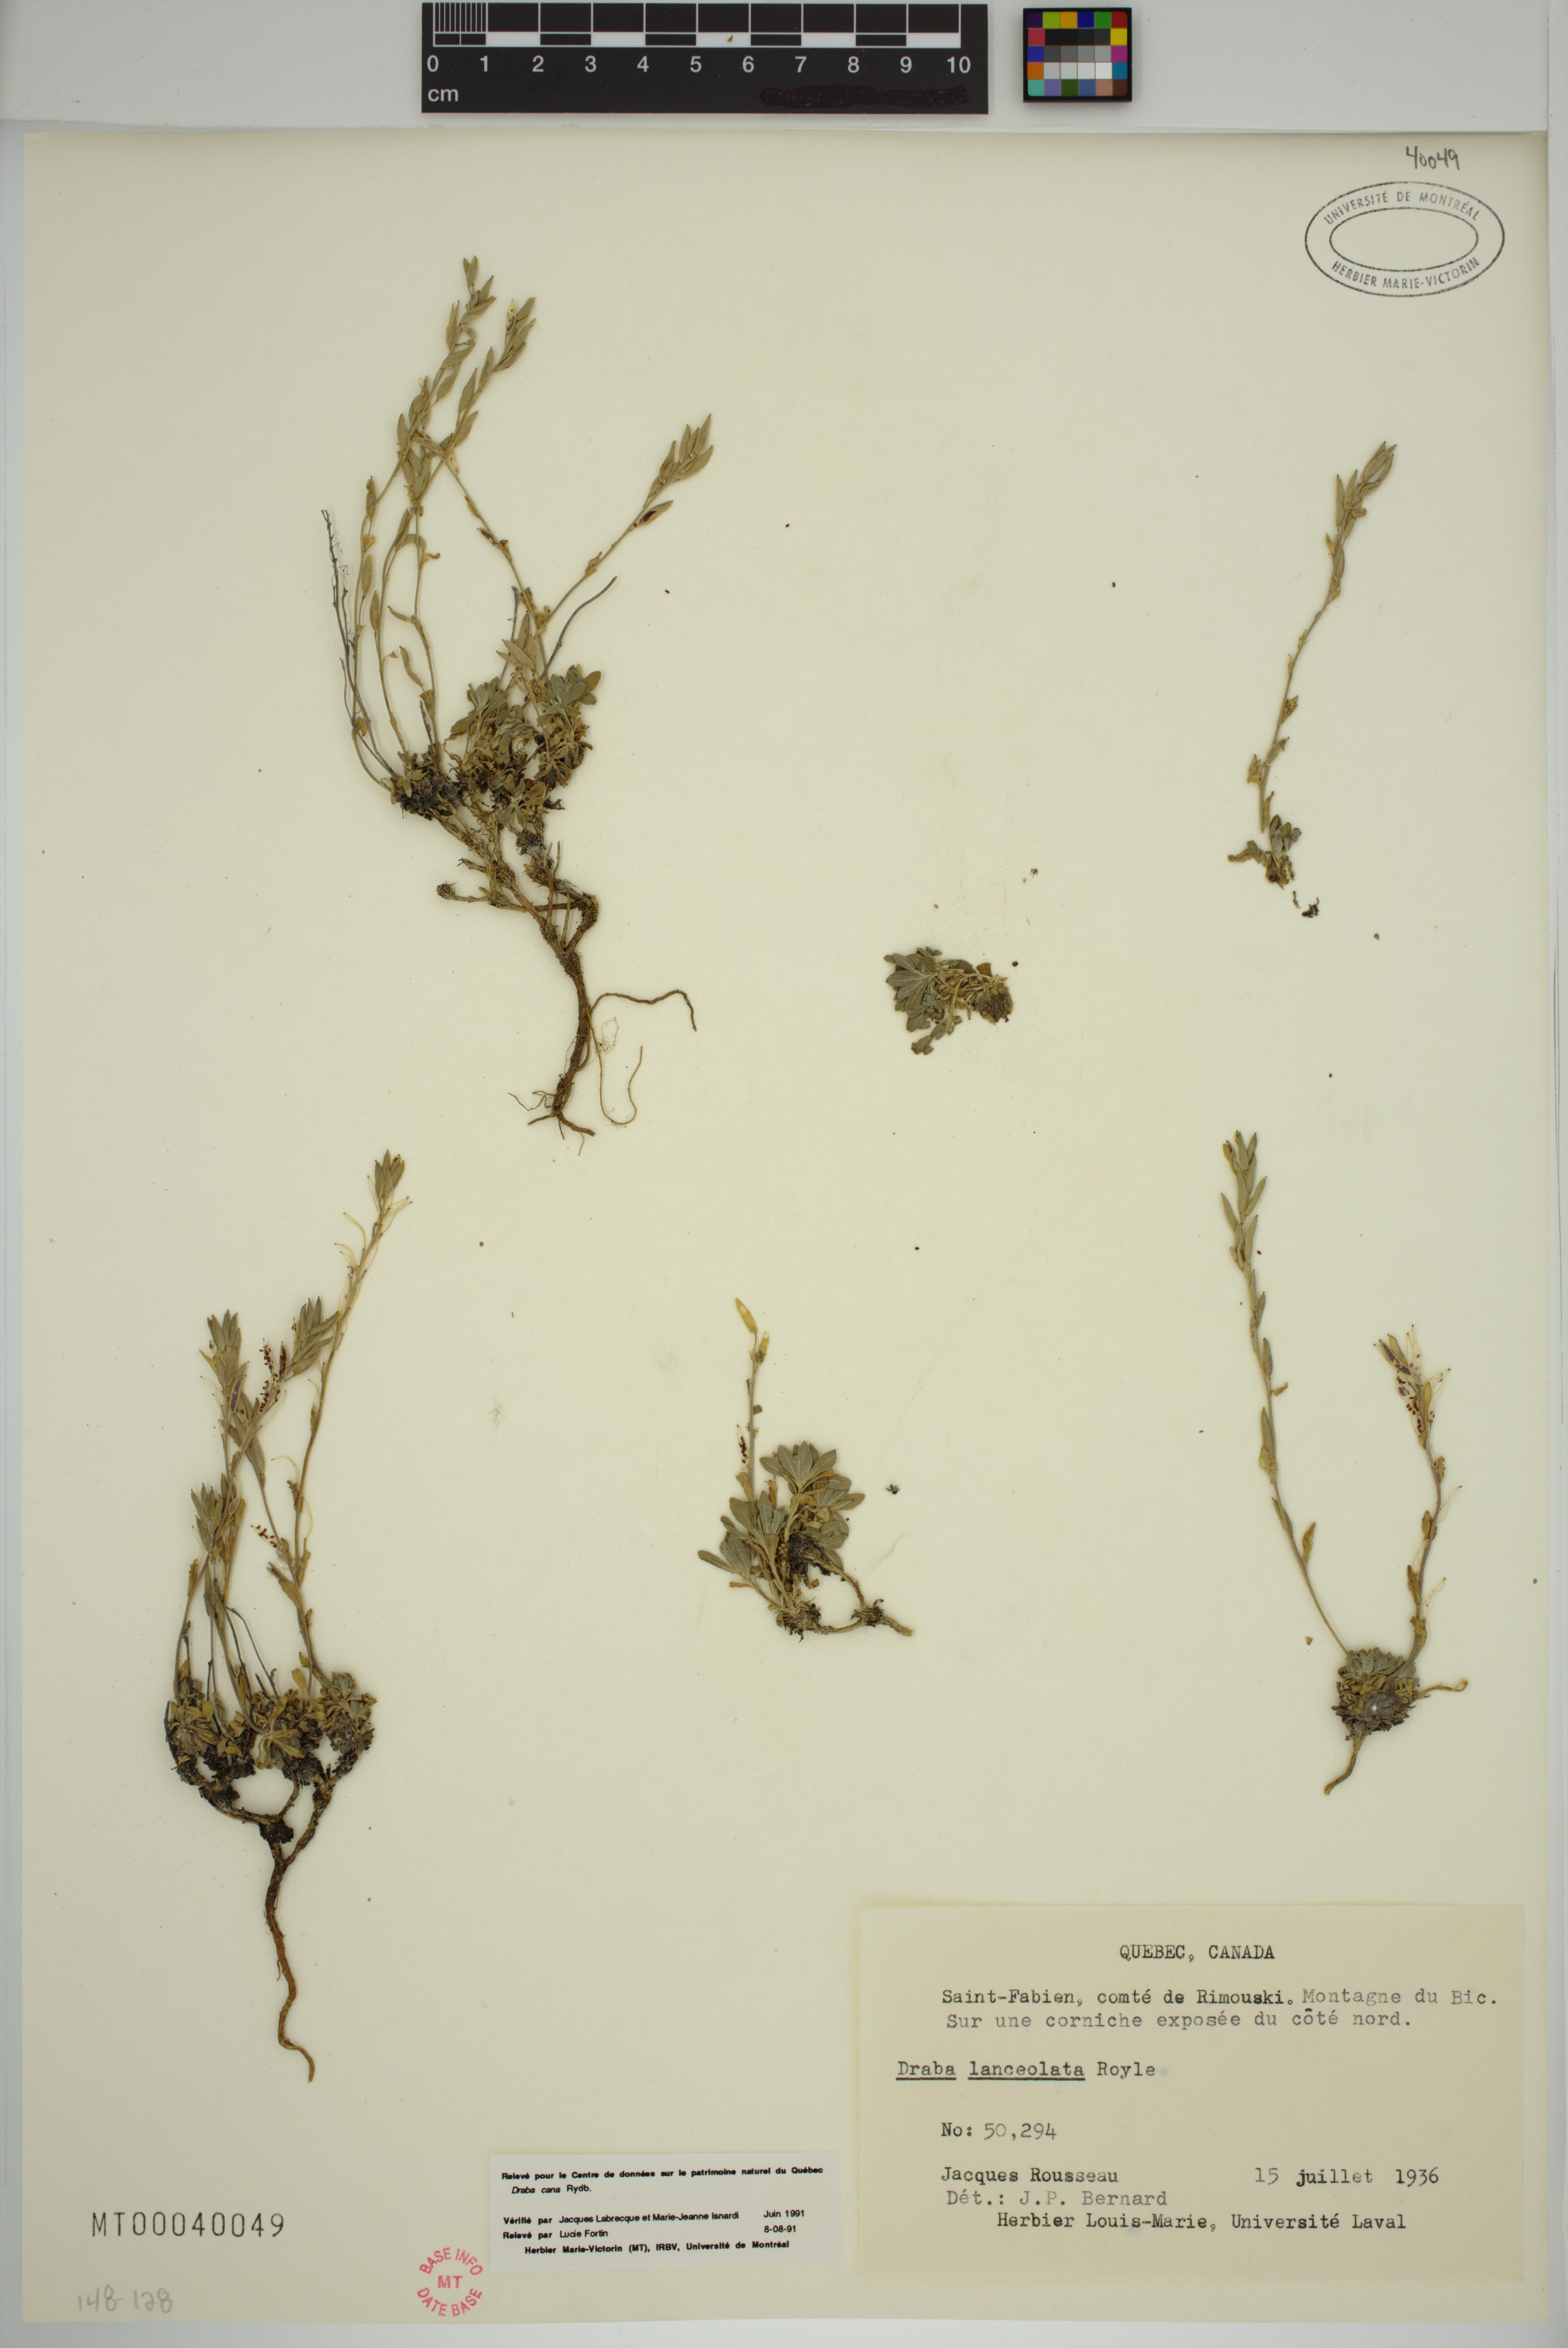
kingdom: Plantae
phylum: Tracheophyta
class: Magnoliopsida
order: Brassicales
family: Brassicaceae
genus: Draba
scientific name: Draba cana
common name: Hoary draba
